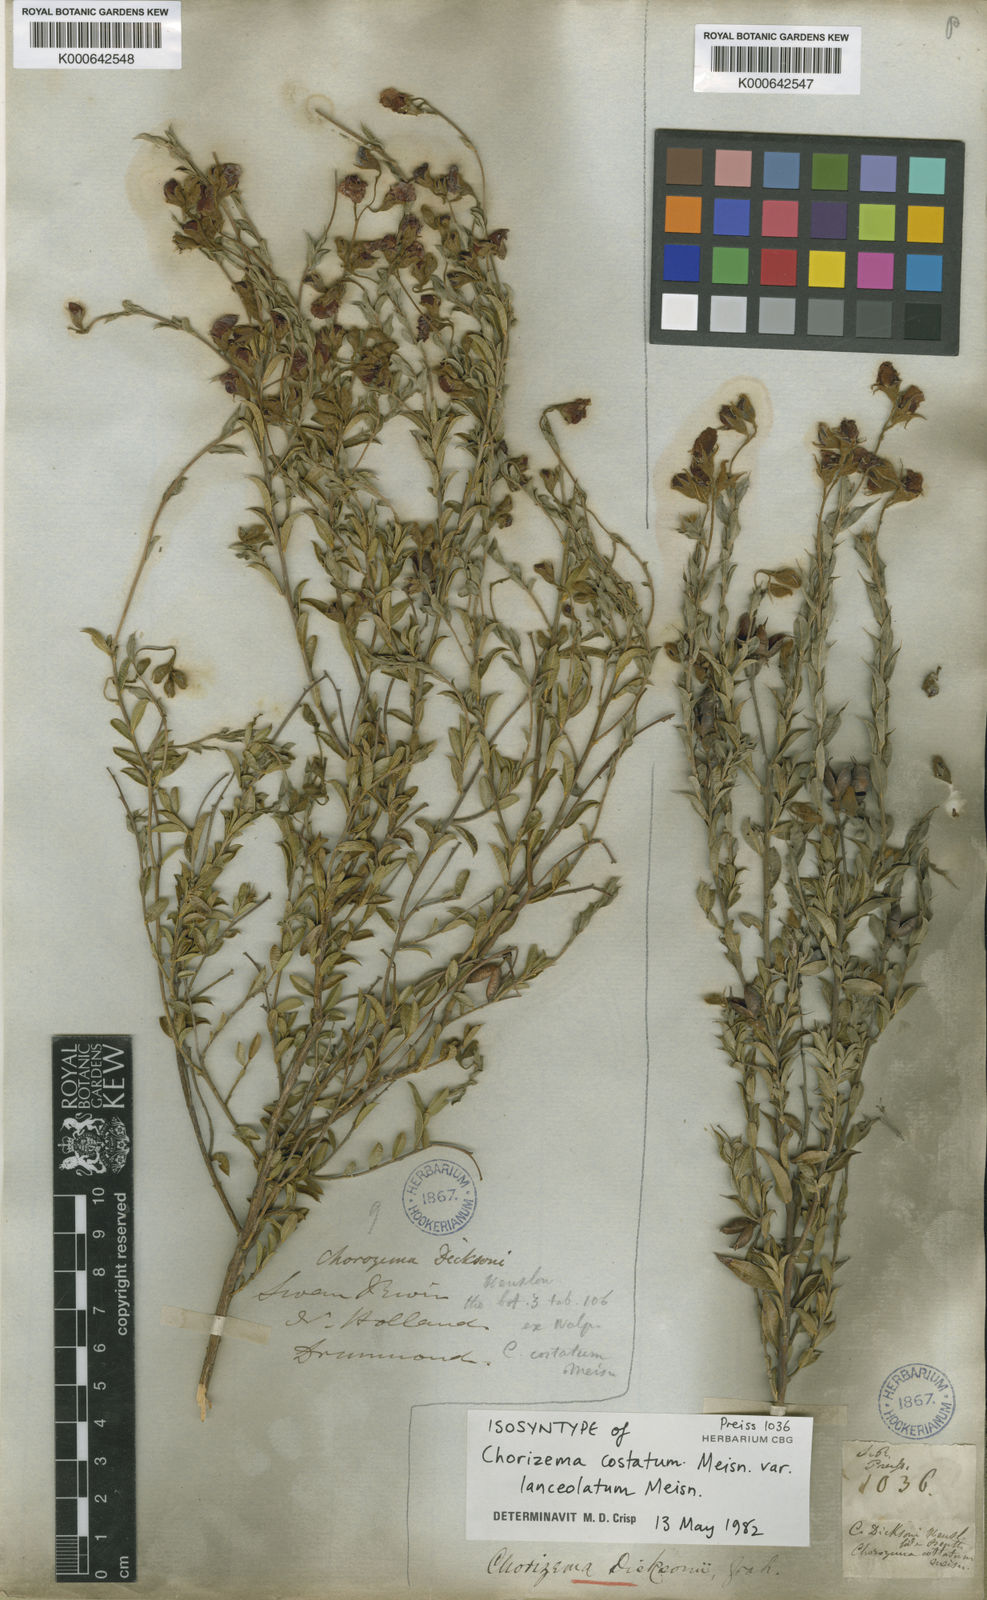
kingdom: Plantae
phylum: Tracheophyta
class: Magnoliopsida
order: Fabales
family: Fabaceae
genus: Chorizema
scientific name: Chorizema dicksonii
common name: Yellow-eyed flame-pea
